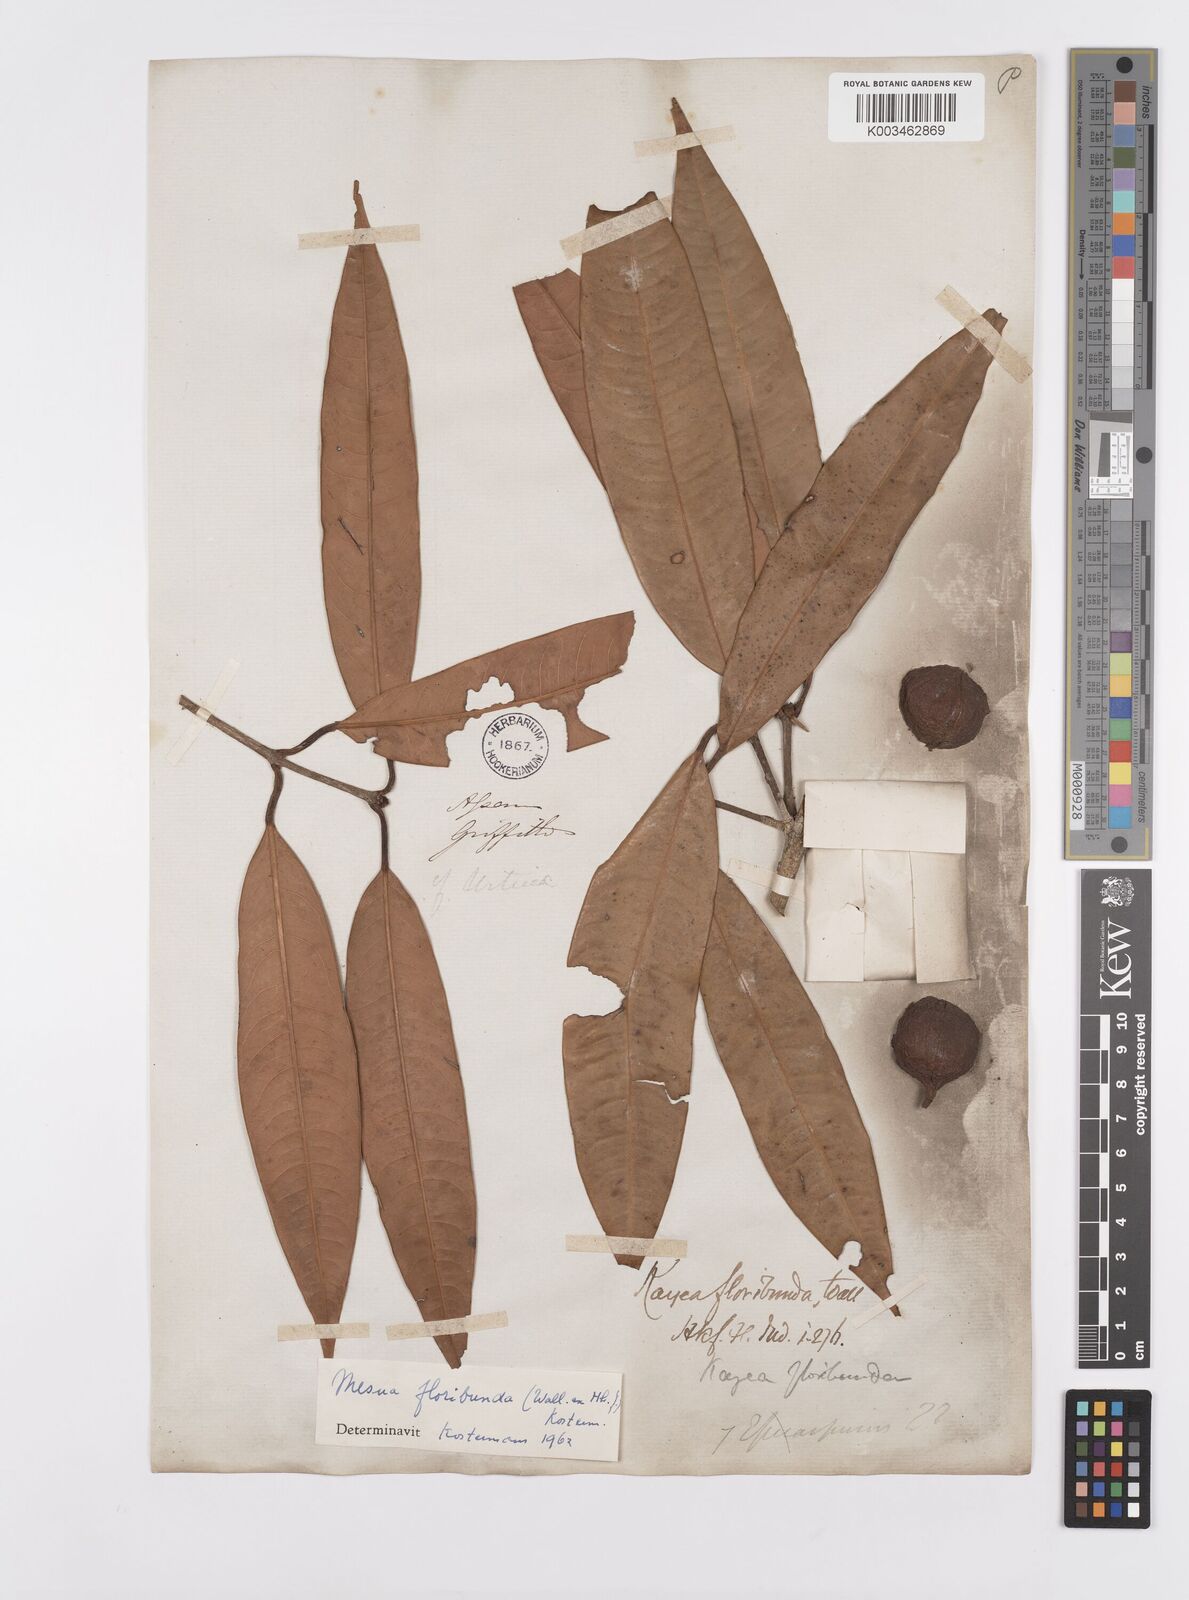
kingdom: Plantae
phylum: Tracheophyta
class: Magnoliopsida
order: Malpighiales
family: Calophyllaceae
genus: Kayea
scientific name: Kayea floribunda
